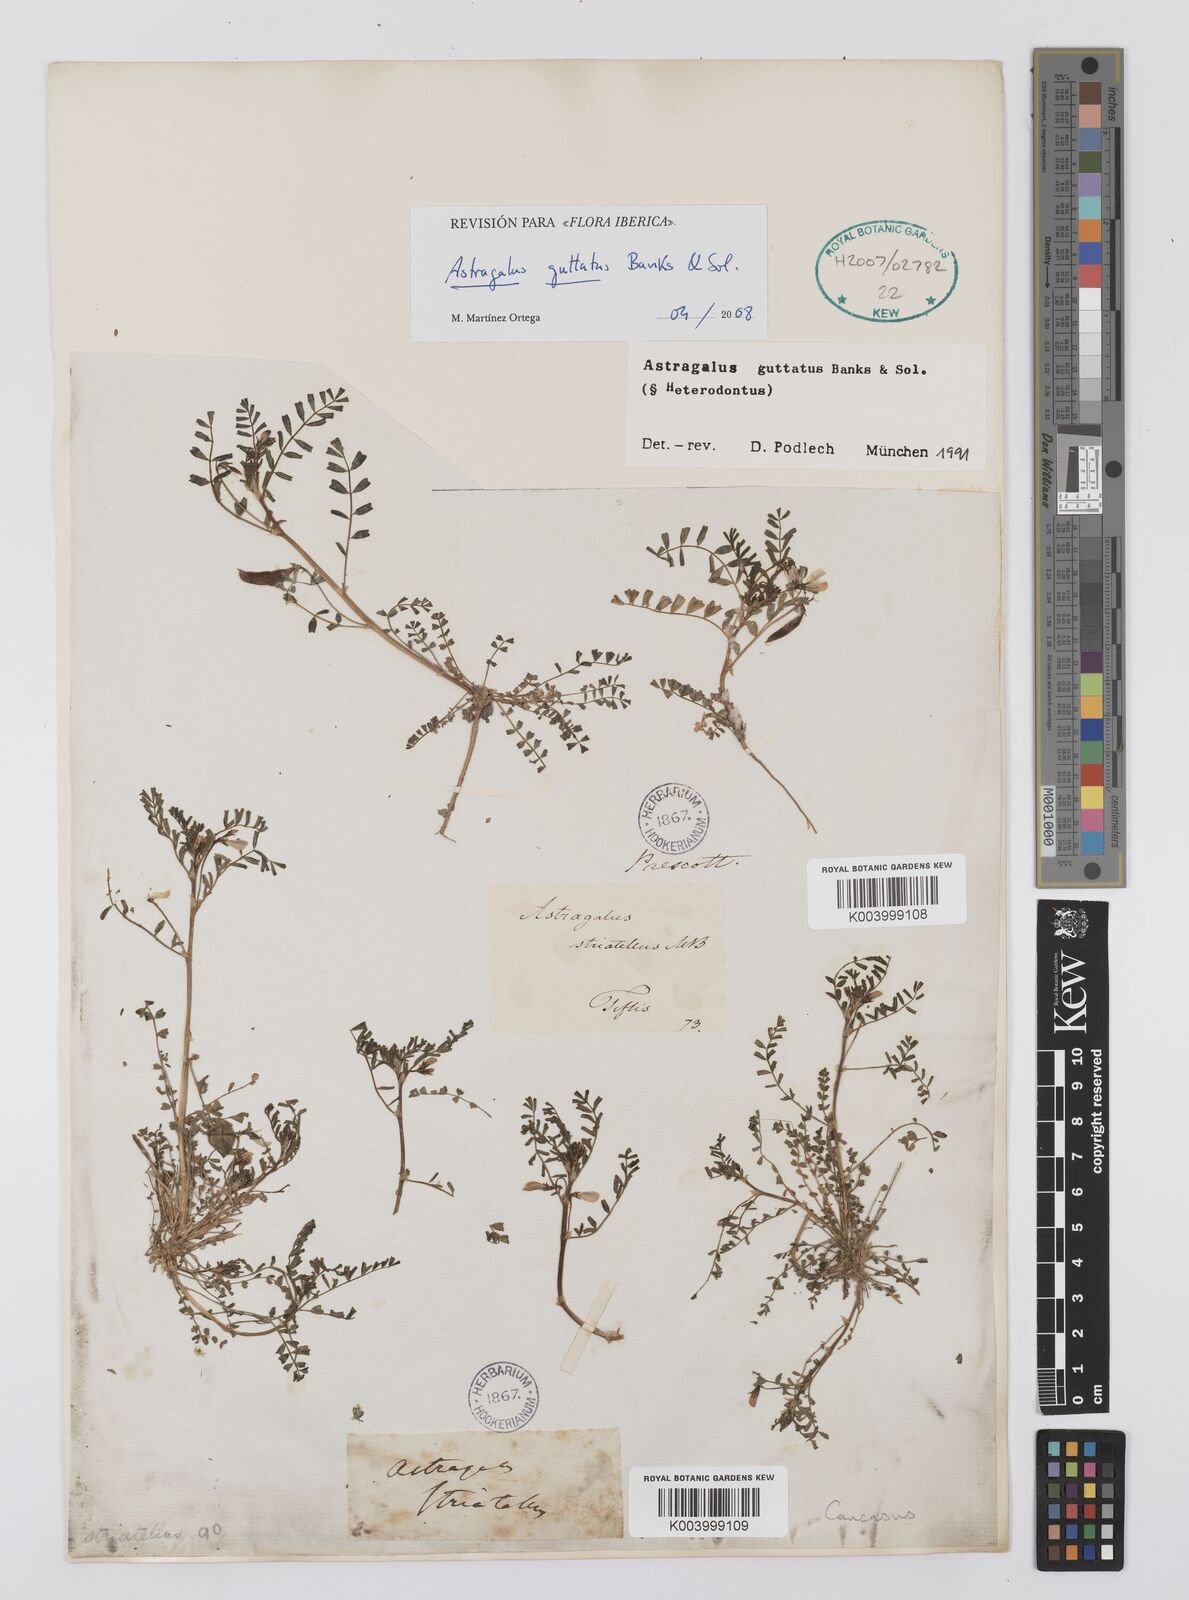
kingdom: Plantae
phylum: Tracheophyta
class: Magnoliopsida
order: Fabales
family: Fabaceae
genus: Astragalus
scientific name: Astragalus heterodontus
